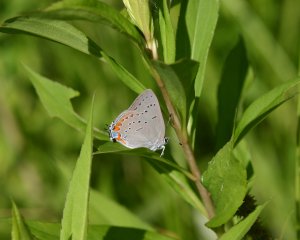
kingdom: Animalia
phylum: Arthropoda
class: Insecta
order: Lepidoptera
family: Lycaenidae
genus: Strymon
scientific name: Strymon acadica
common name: Acadian Hairstreak
